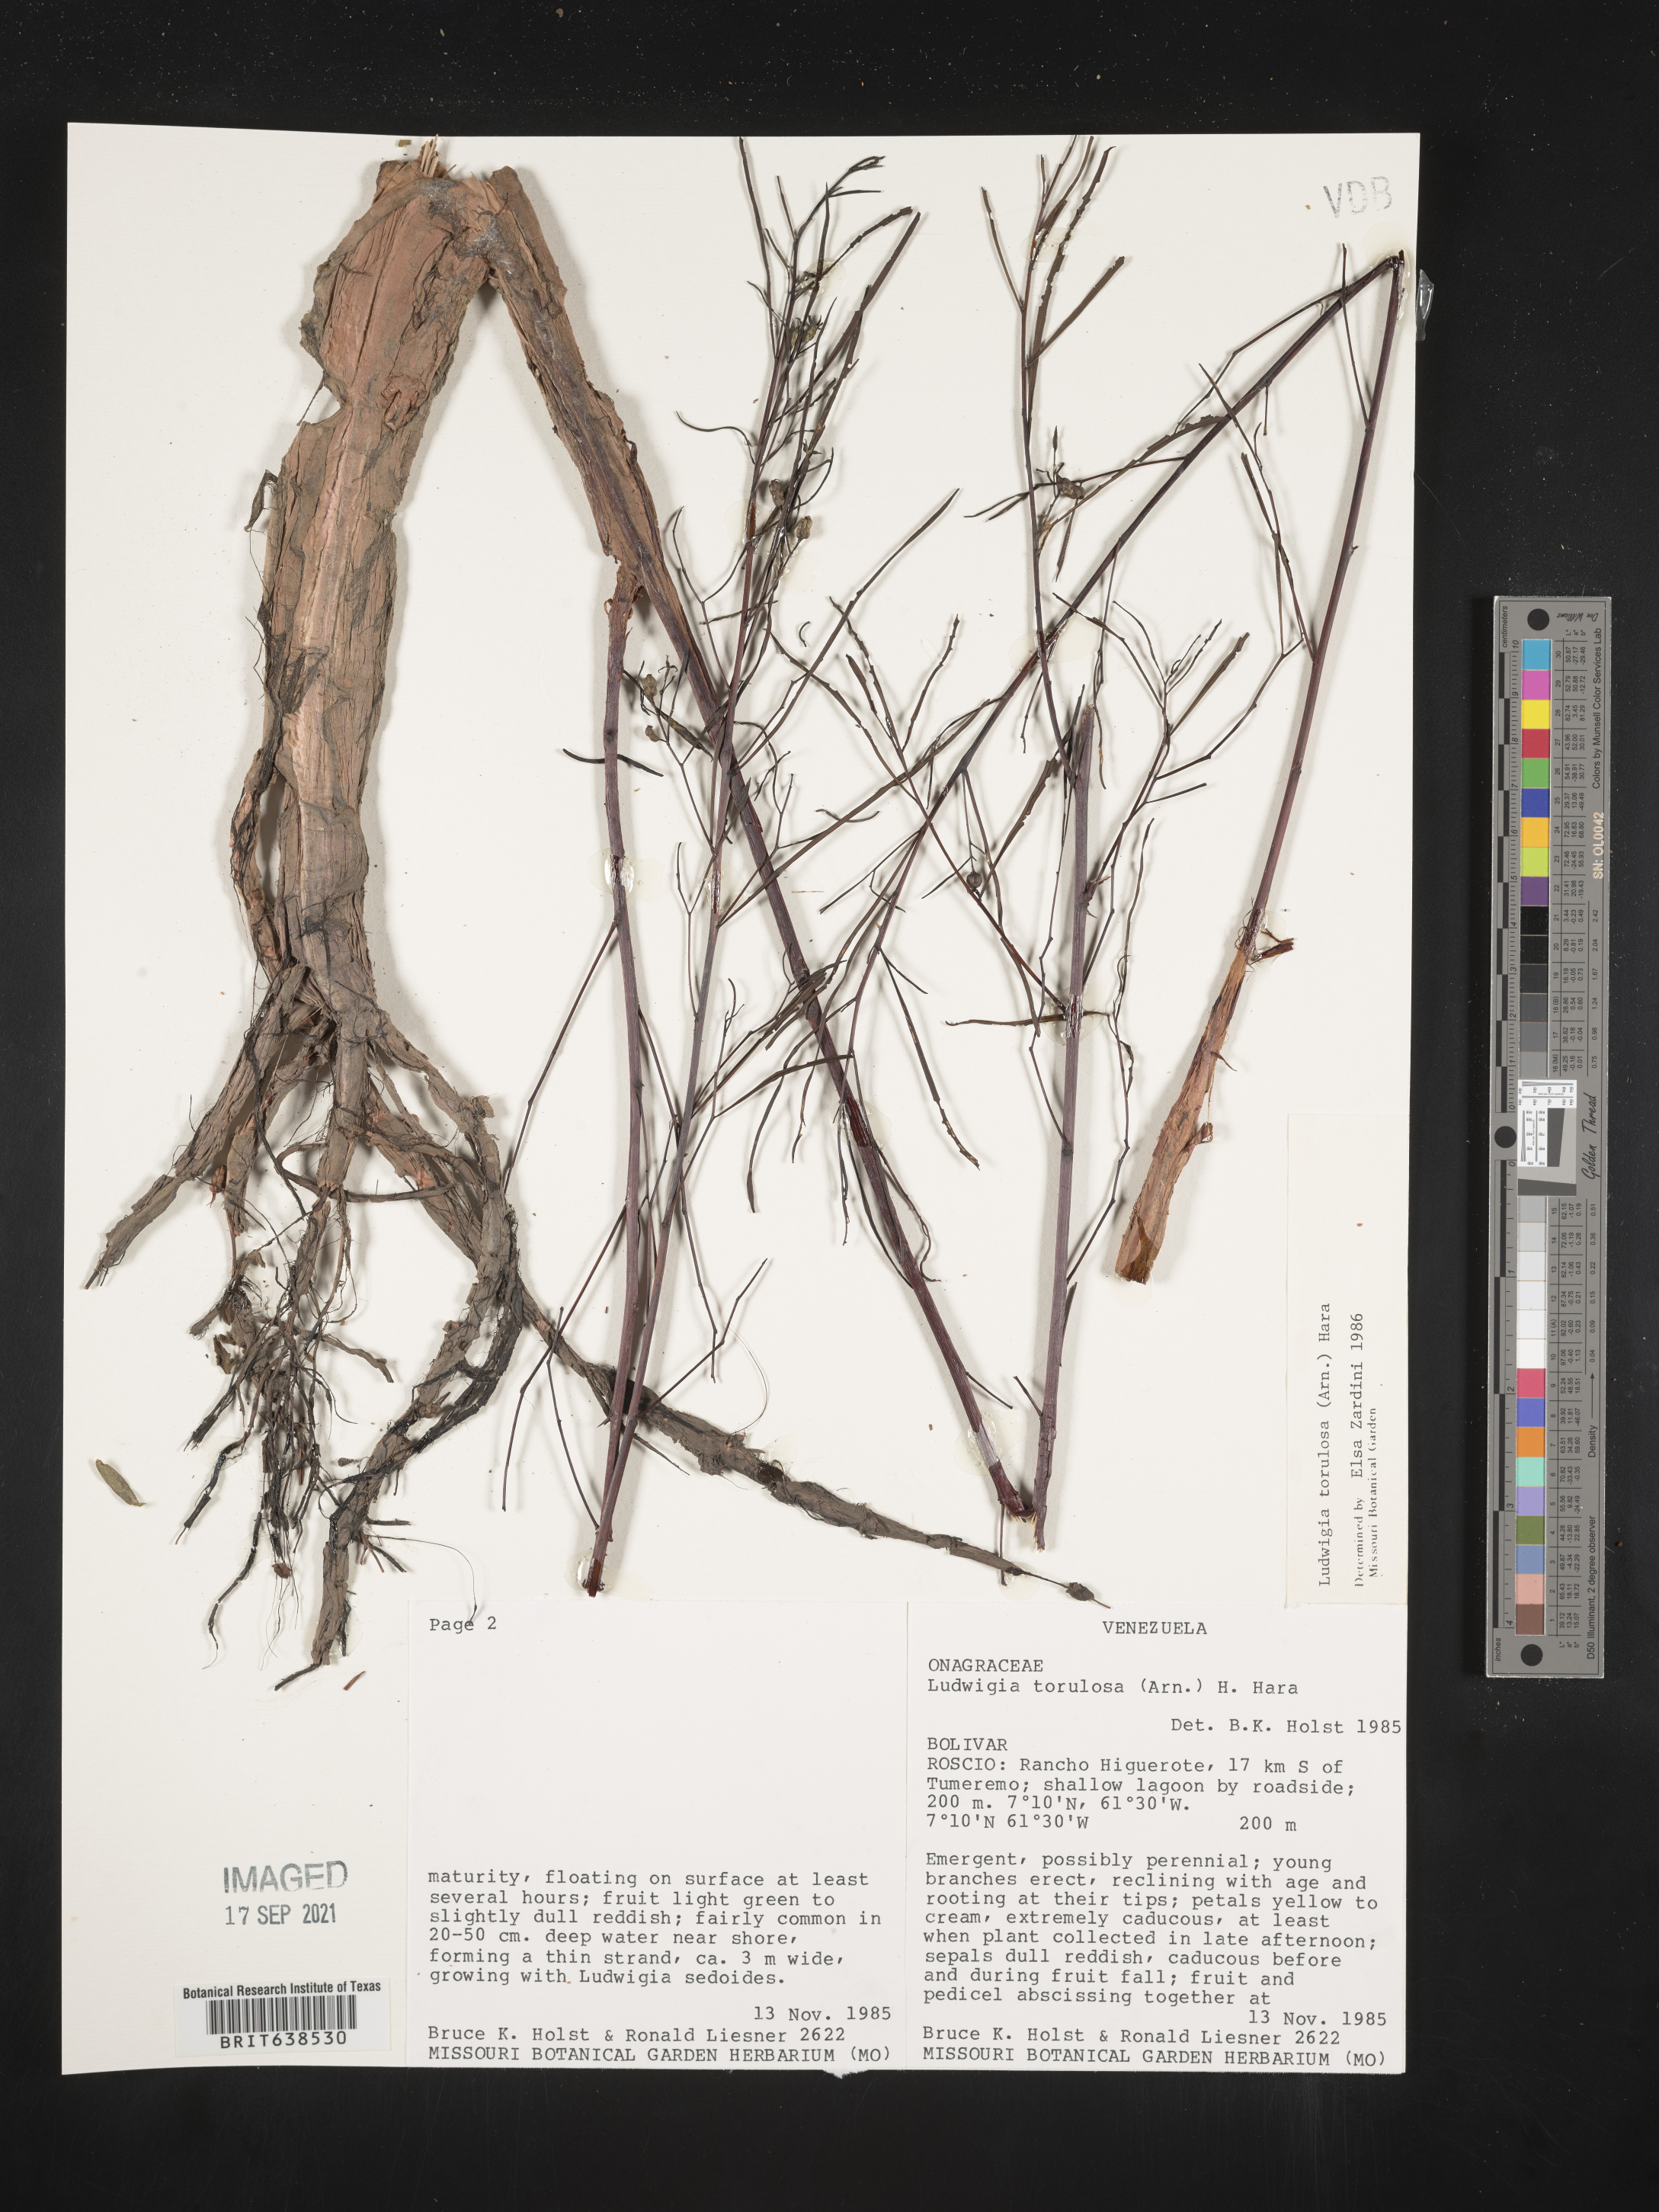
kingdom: Plantae
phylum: Tracheophyta
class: Magnoliopsida
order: Myrtales
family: Onagraceae
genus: Ludwigia
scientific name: Ludwigia
